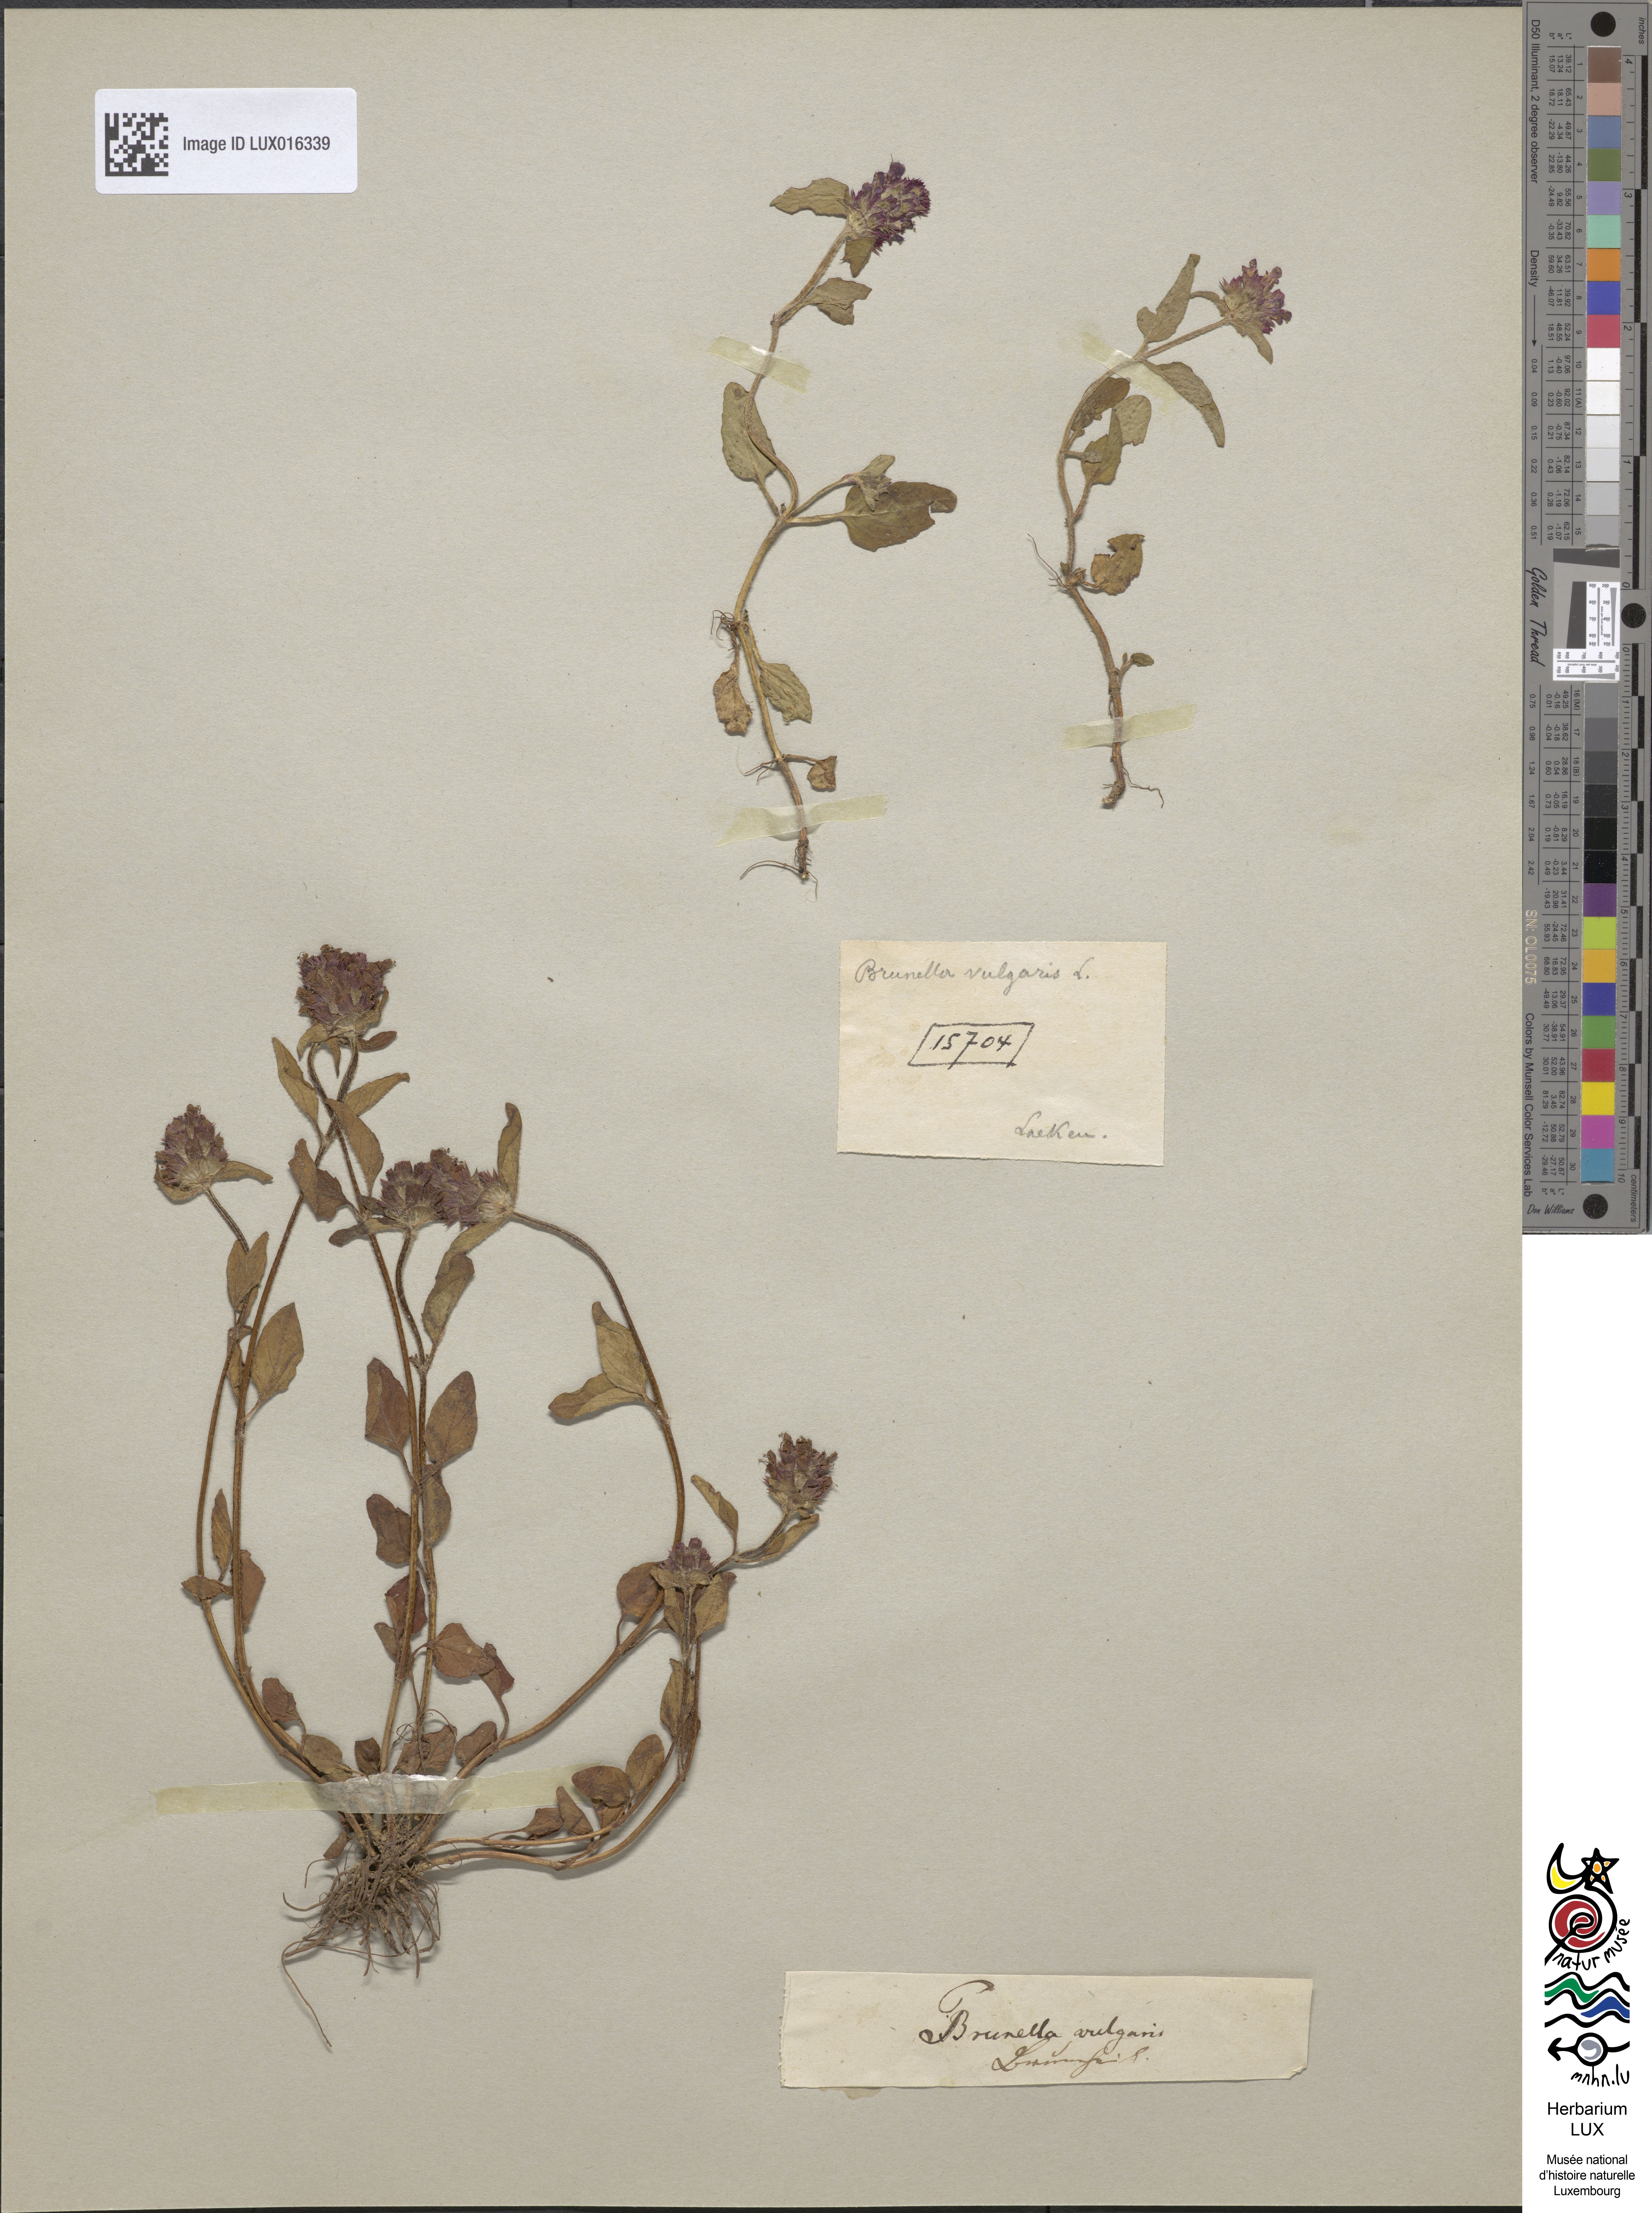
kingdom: Plantae
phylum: Tracheophyta
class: Magnoliopsida
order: Lamiales
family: Lamiaceae
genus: Prunella
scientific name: Prunella vulgaris
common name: Heal-all
